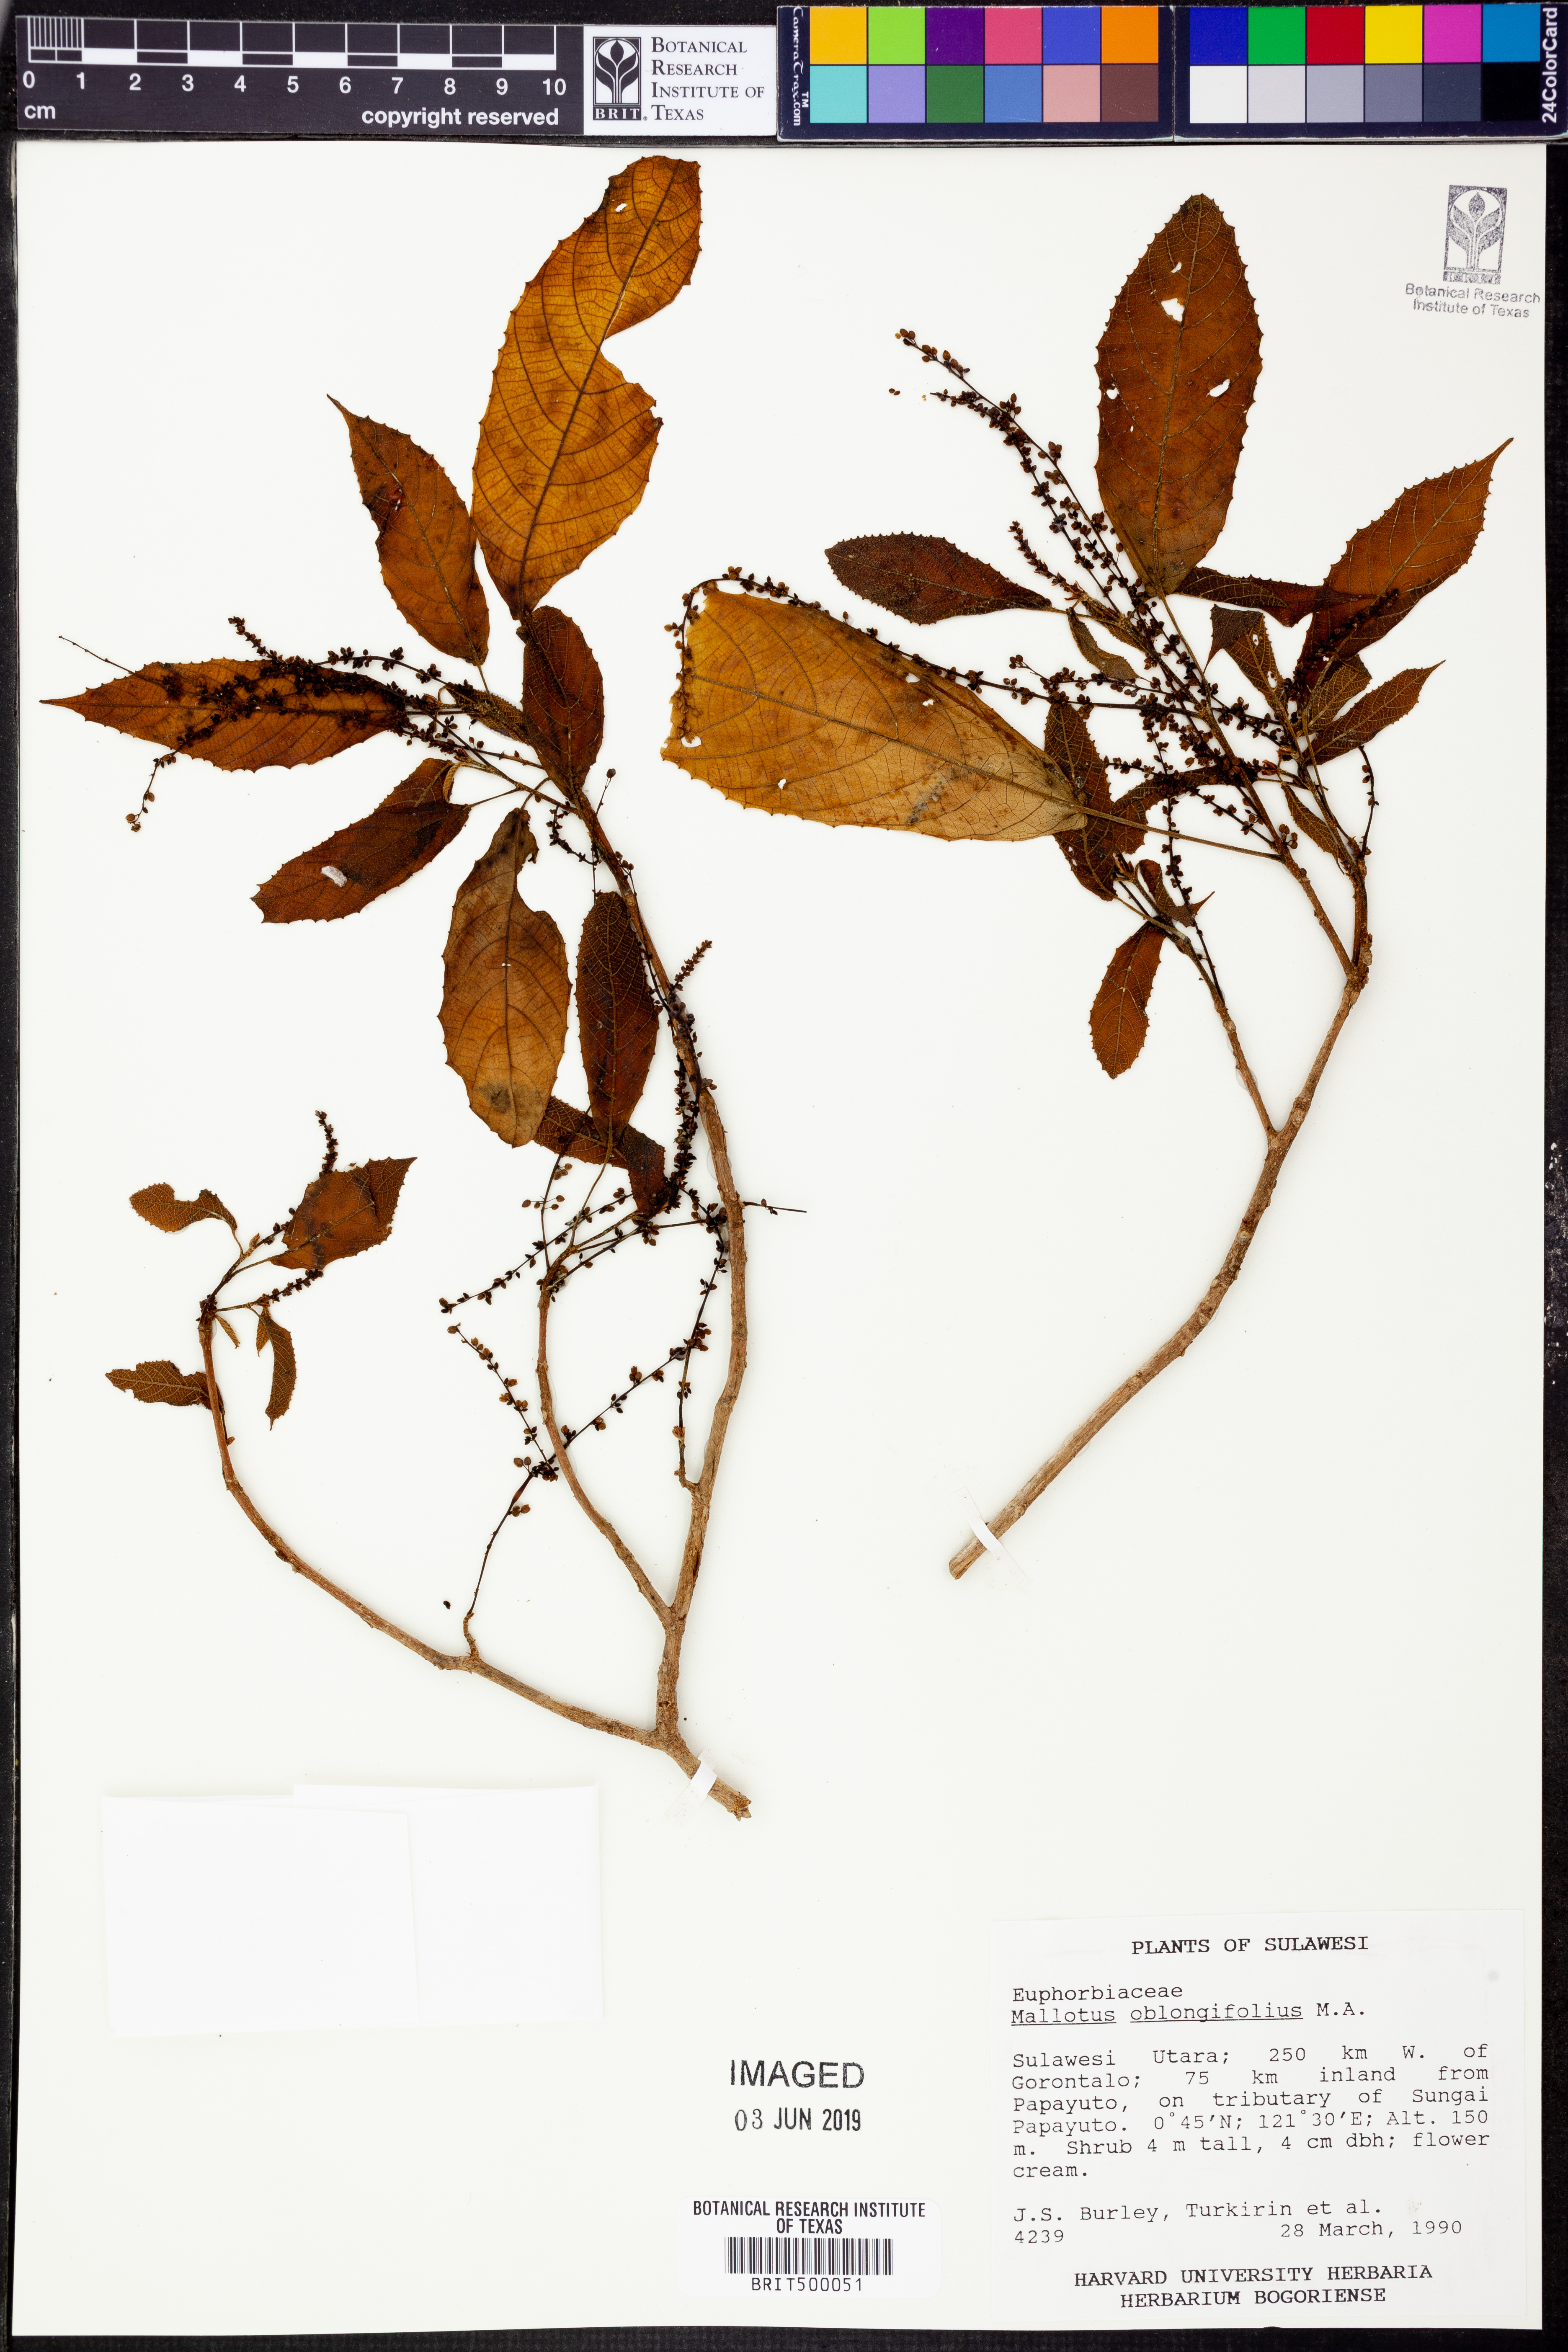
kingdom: Plantae
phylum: Tracheophyta
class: Magnoliopsida
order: Malpighiales
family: Euphorbiaceae
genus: Mallotus
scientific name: Mallotus peltatus
